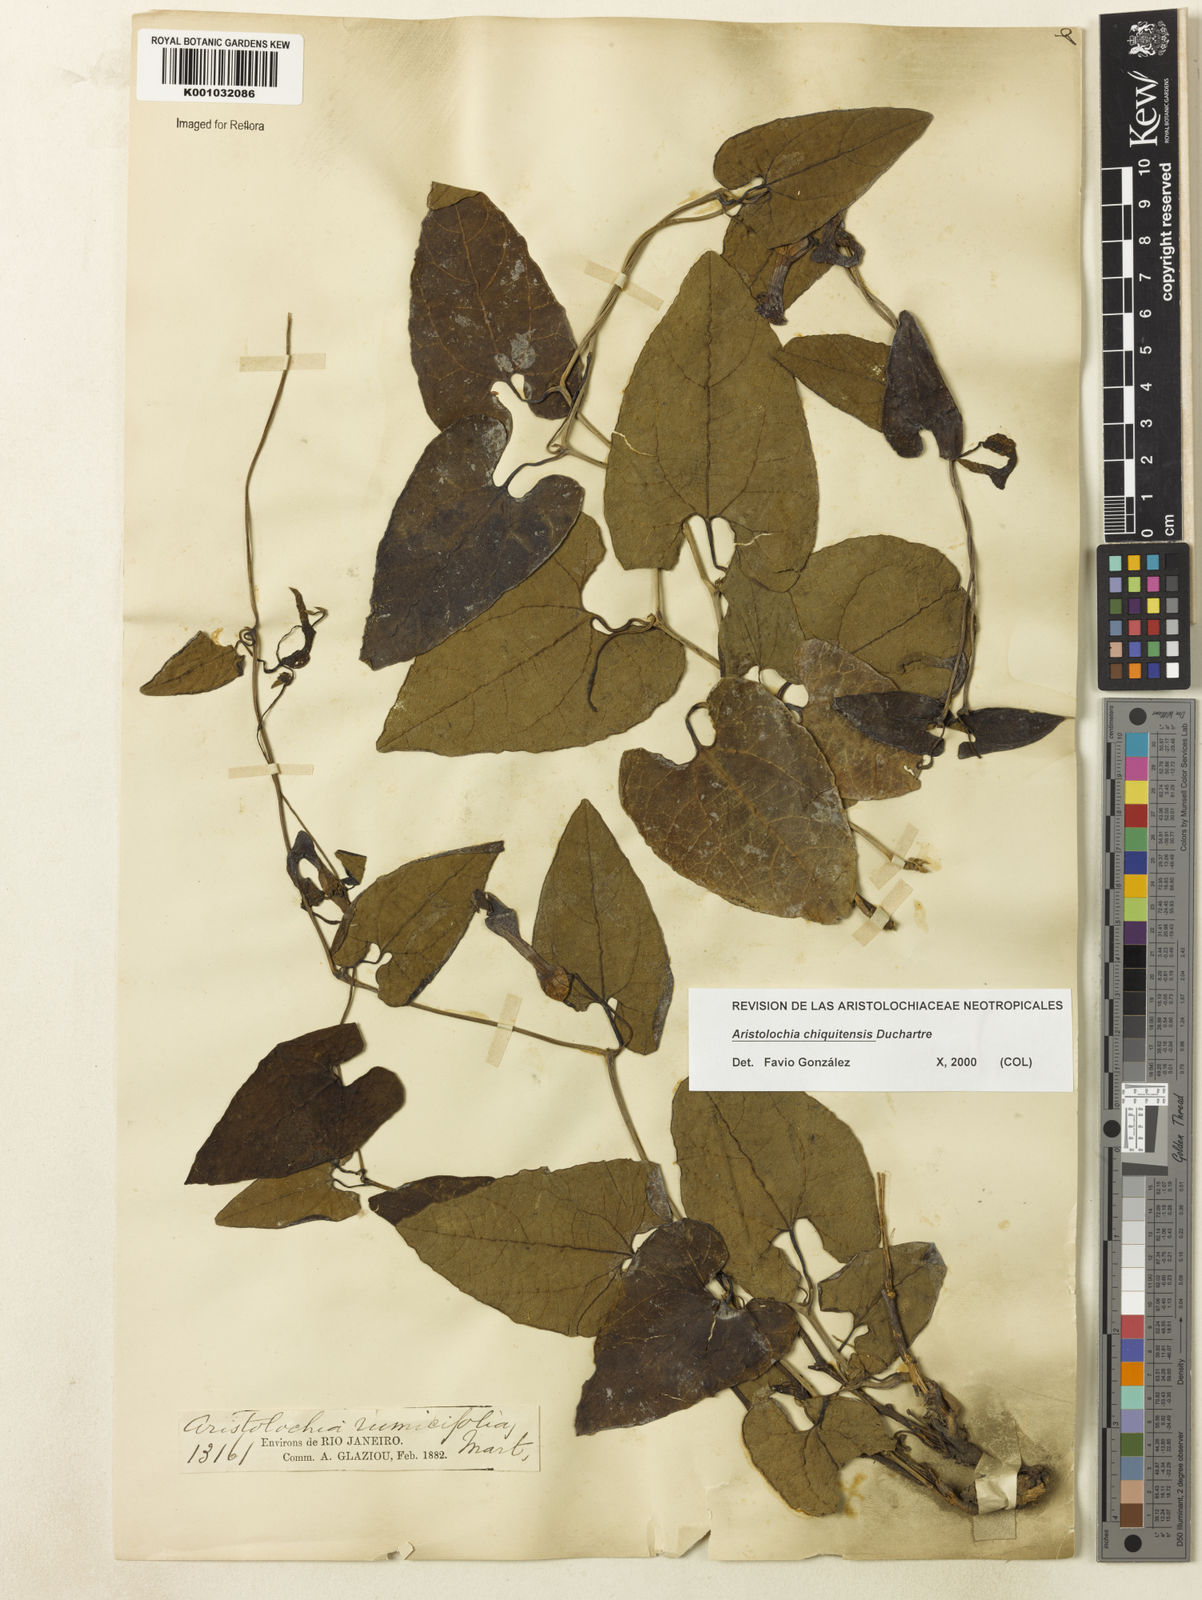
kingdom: Plantae
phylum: Tracheophyta
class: Magnoliopsida
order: Piperales
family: Aristolochiaceae
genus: Aristolochia
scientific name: Aristolochia chiquitensis
